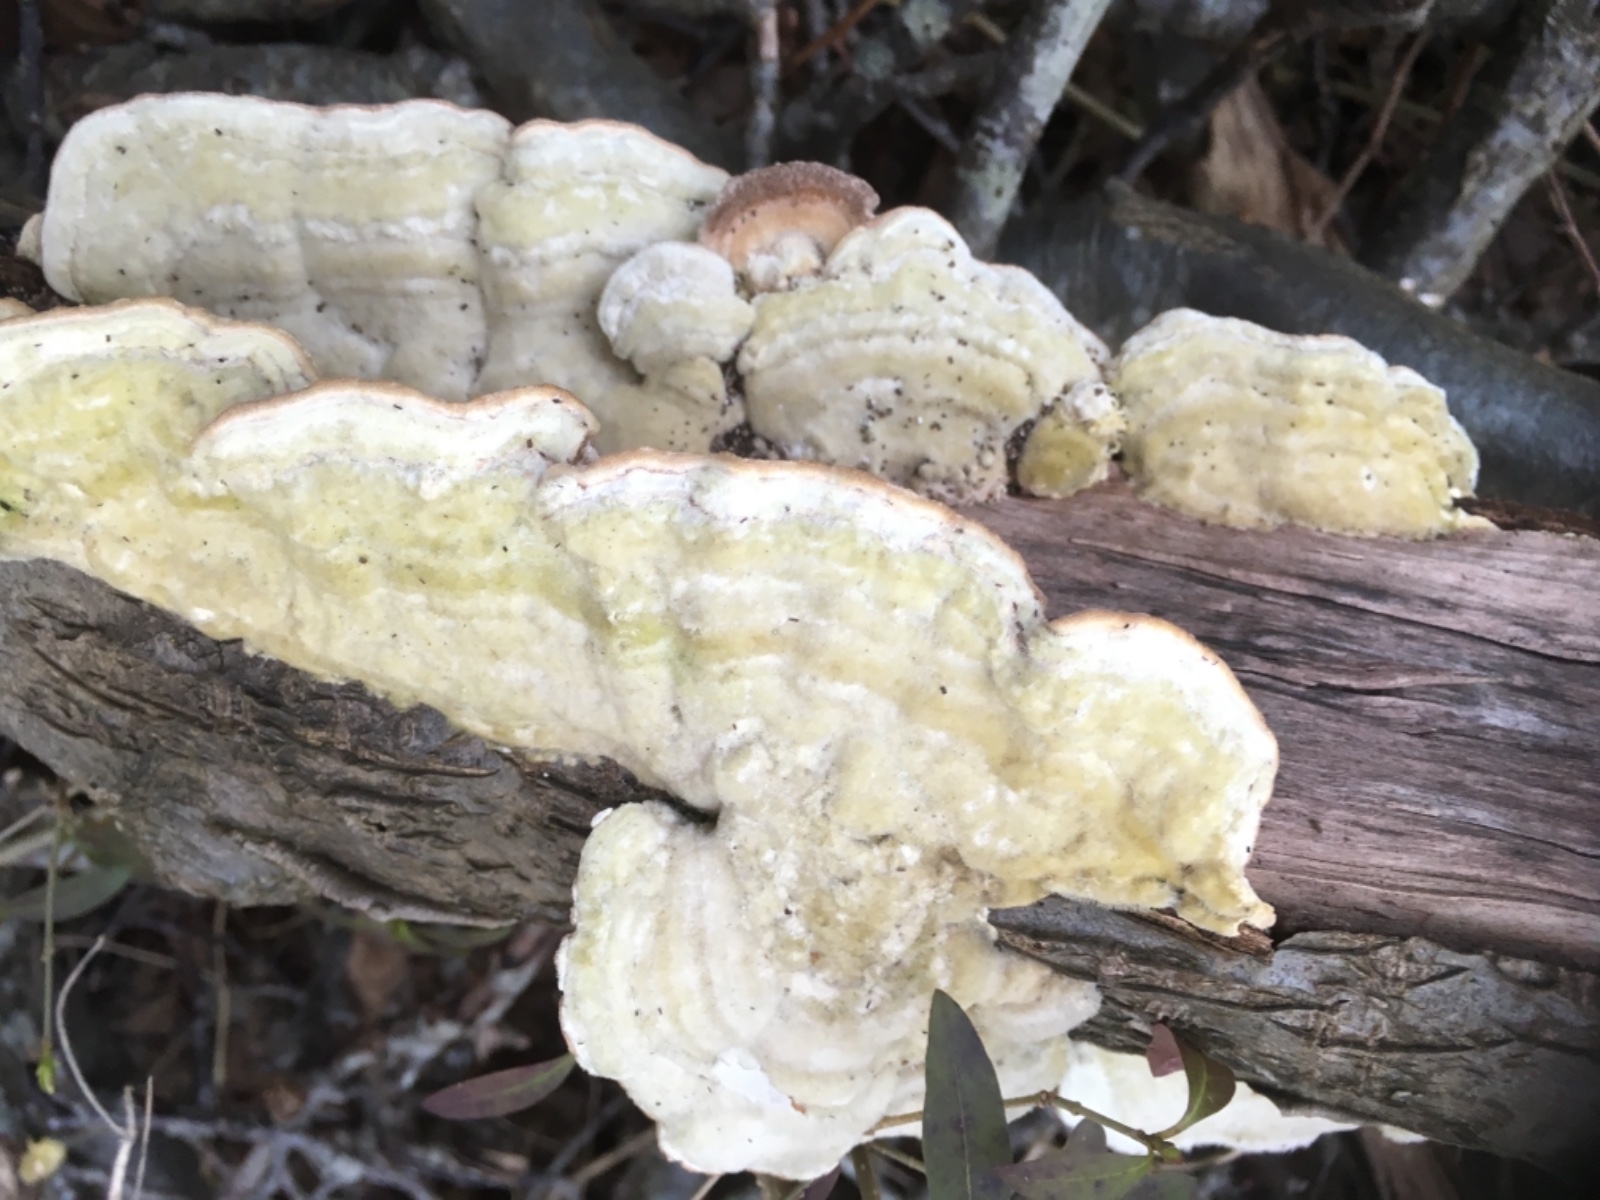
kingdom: Fungi
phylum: Basidiomycota
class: Agaricomycetes
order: Polyporales
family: Polyporaceae
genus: Trametes
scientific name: Trametes hirsuta
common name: håret læderporesvamp
